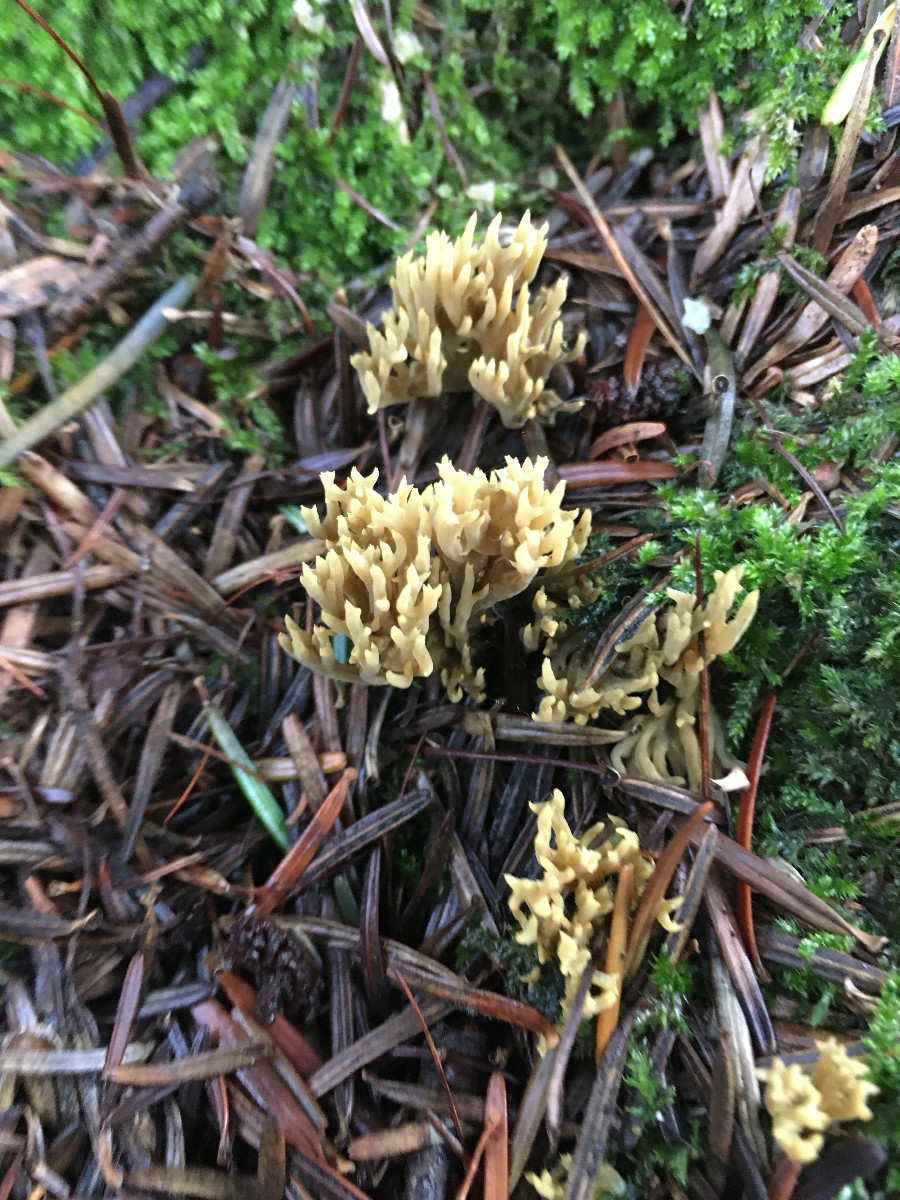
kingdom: Fungi
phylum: Basidiomycota
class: Agaricomycetes
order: Gomphales
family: Gomphaceae
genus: Phaeoclavulina
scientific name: Phaeoclavulina
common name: koralsvamp
